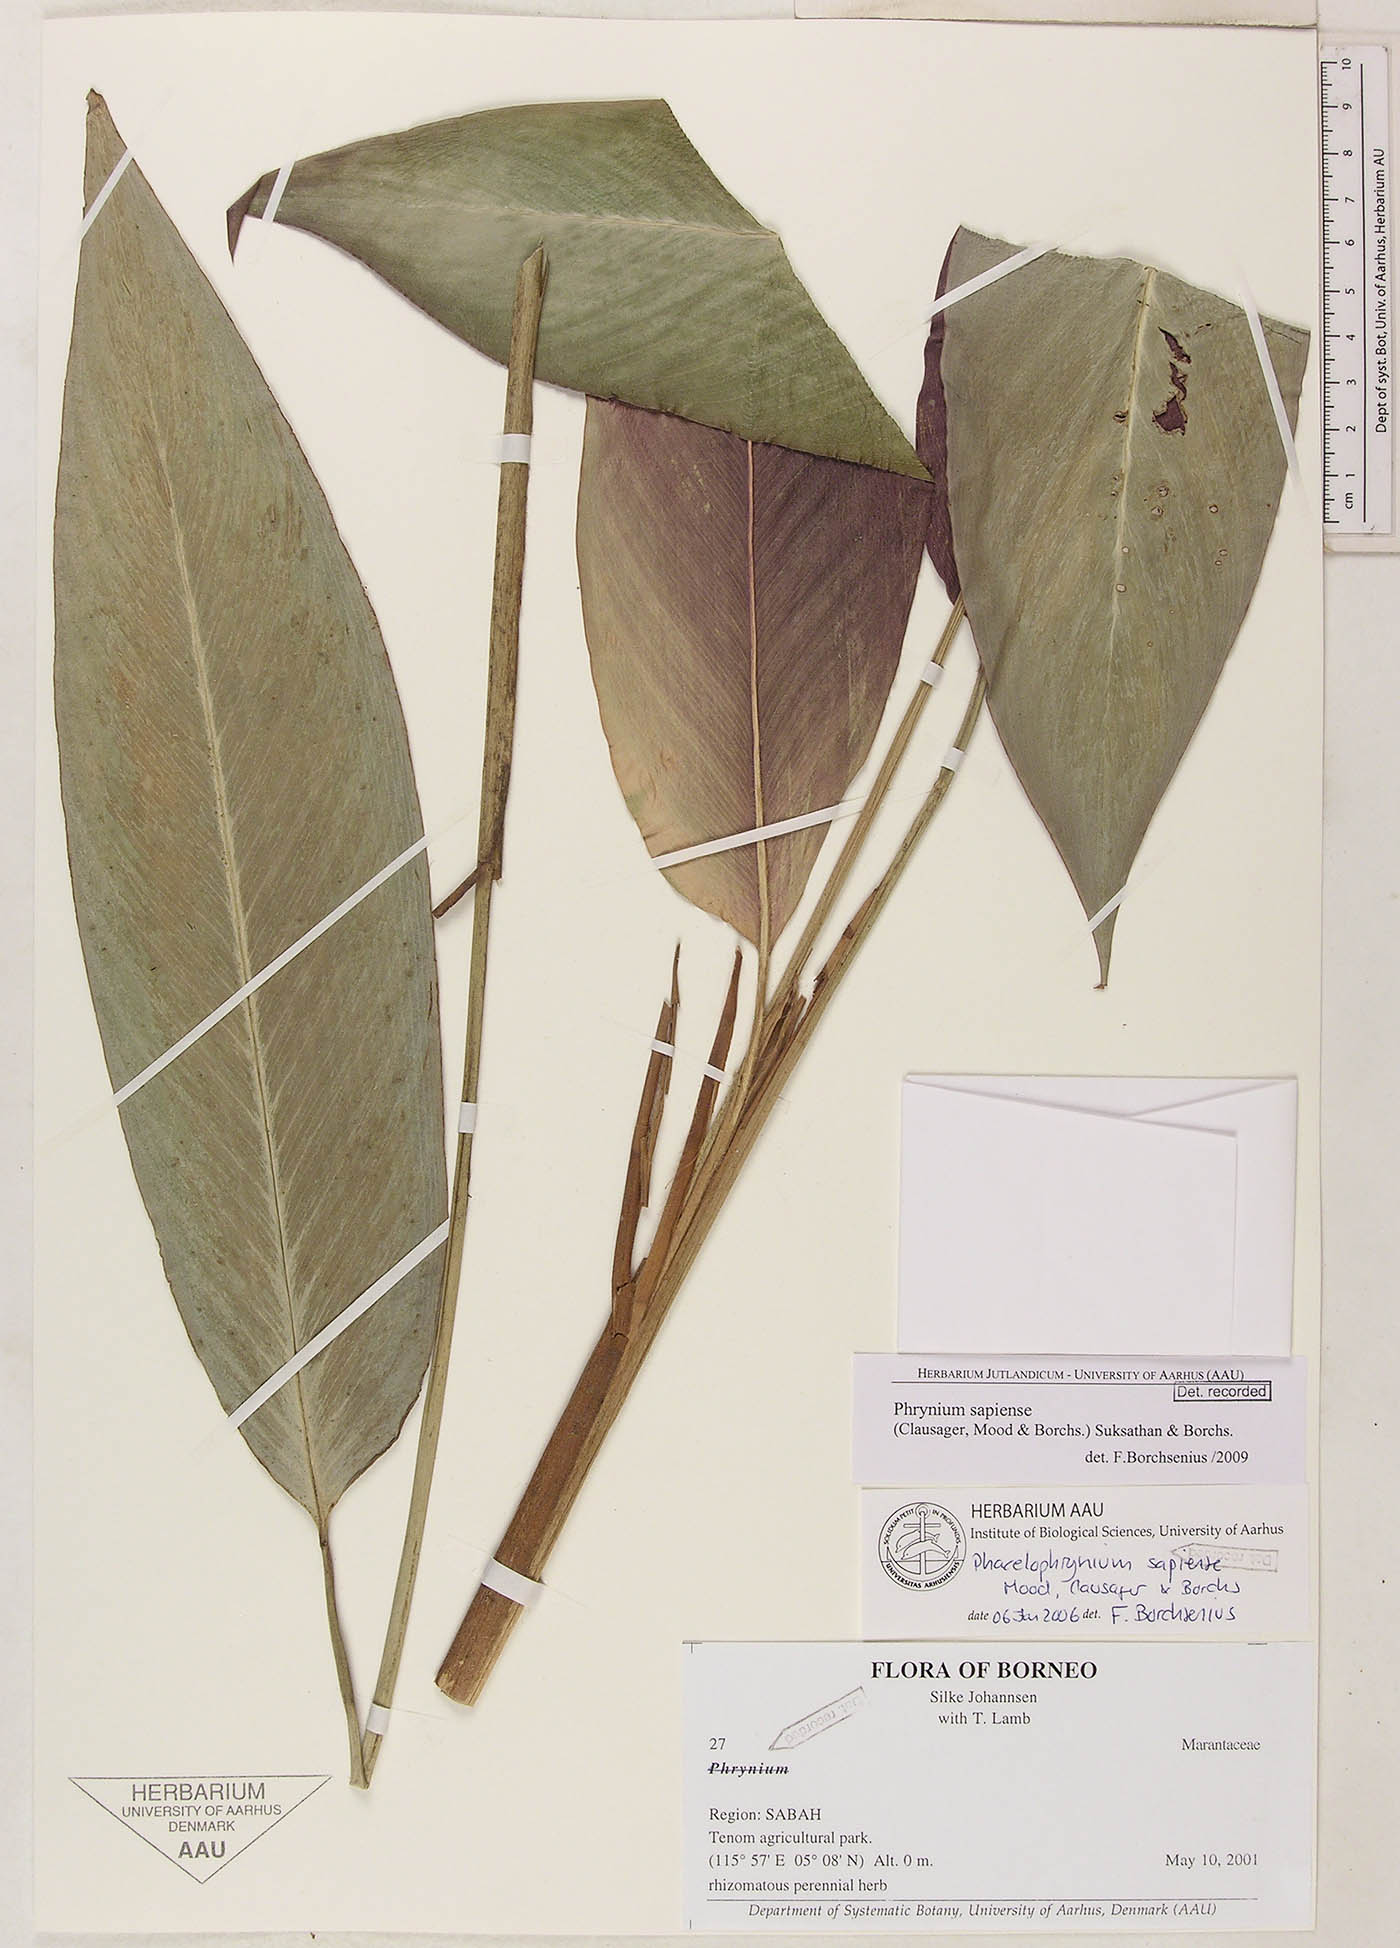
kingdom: Plantae
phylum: Tracheophyta
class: Liliopsida
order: Zingiberales
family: Marantaceae
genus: Phrynium
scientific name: Phrynium sapiense
